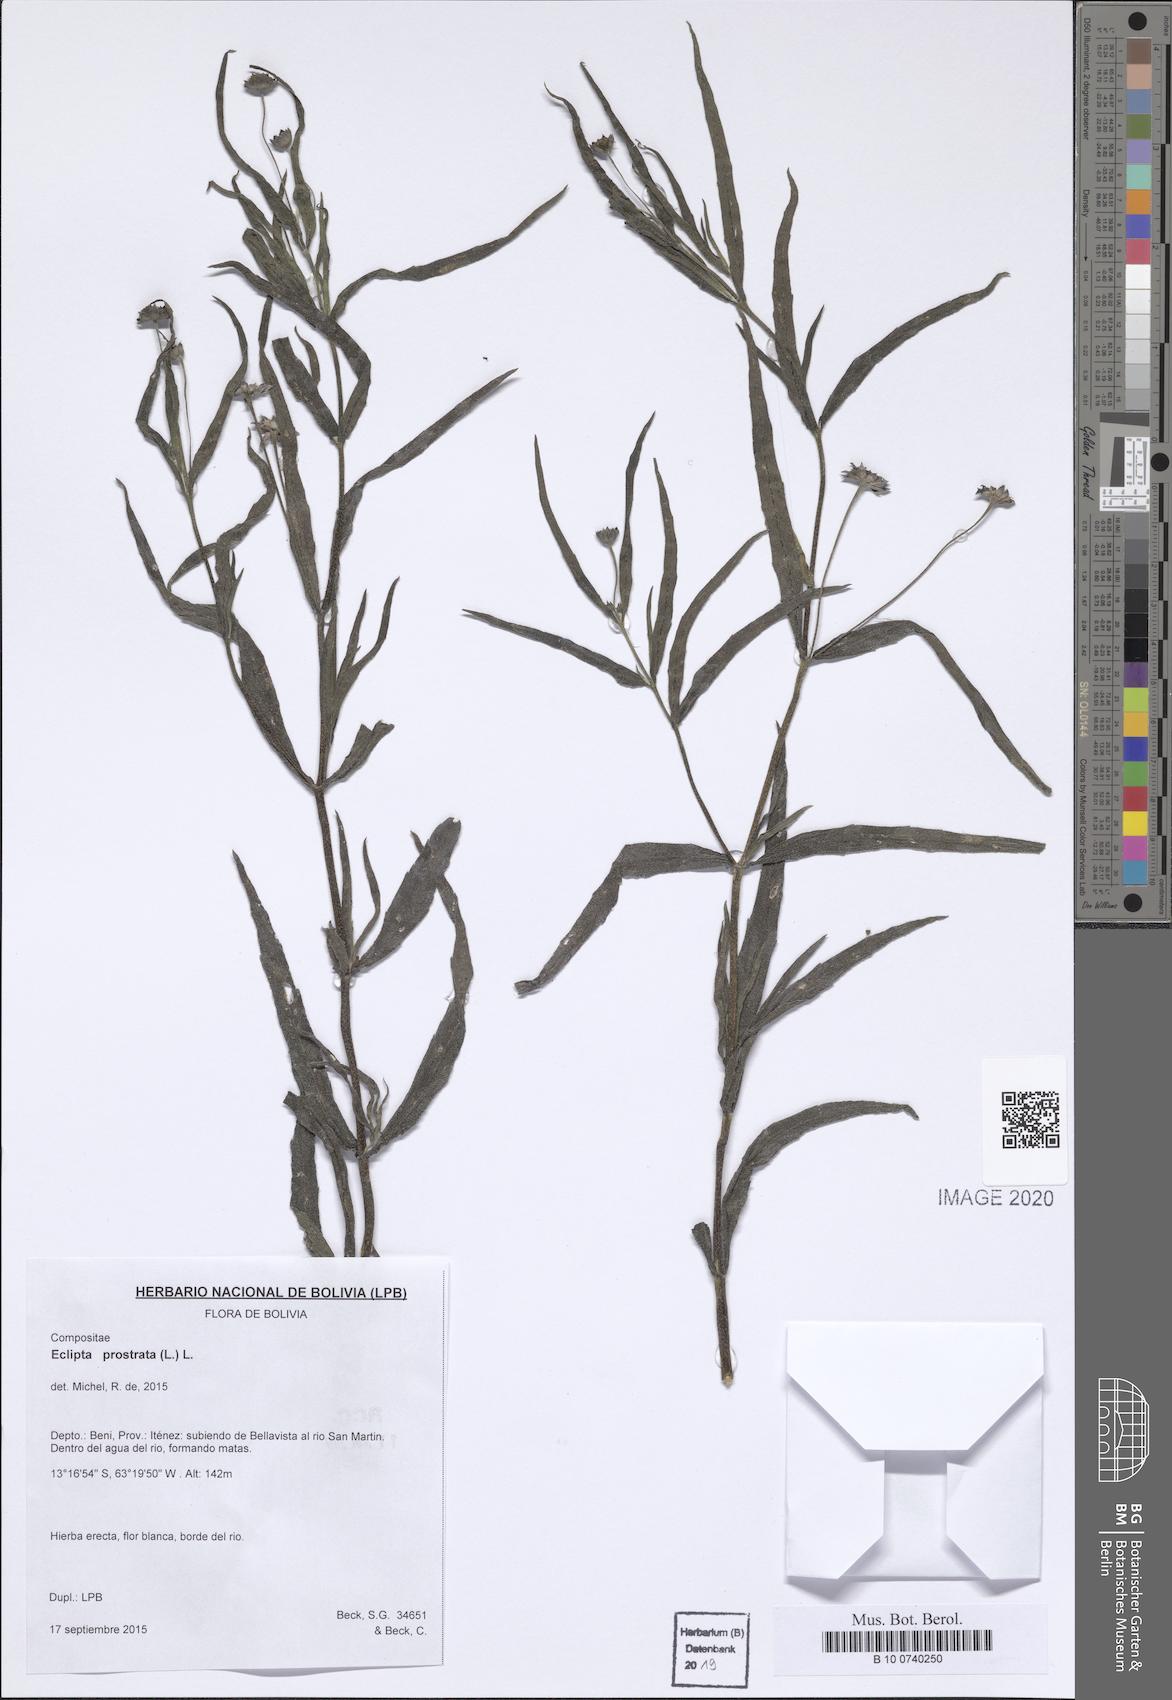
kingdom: Plantae
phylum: Tracheophyta
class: Magnoliopsida
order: Asterales
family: Asteraceae
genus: Eclipta
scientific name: Eclipta prostrata
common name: False daisy
